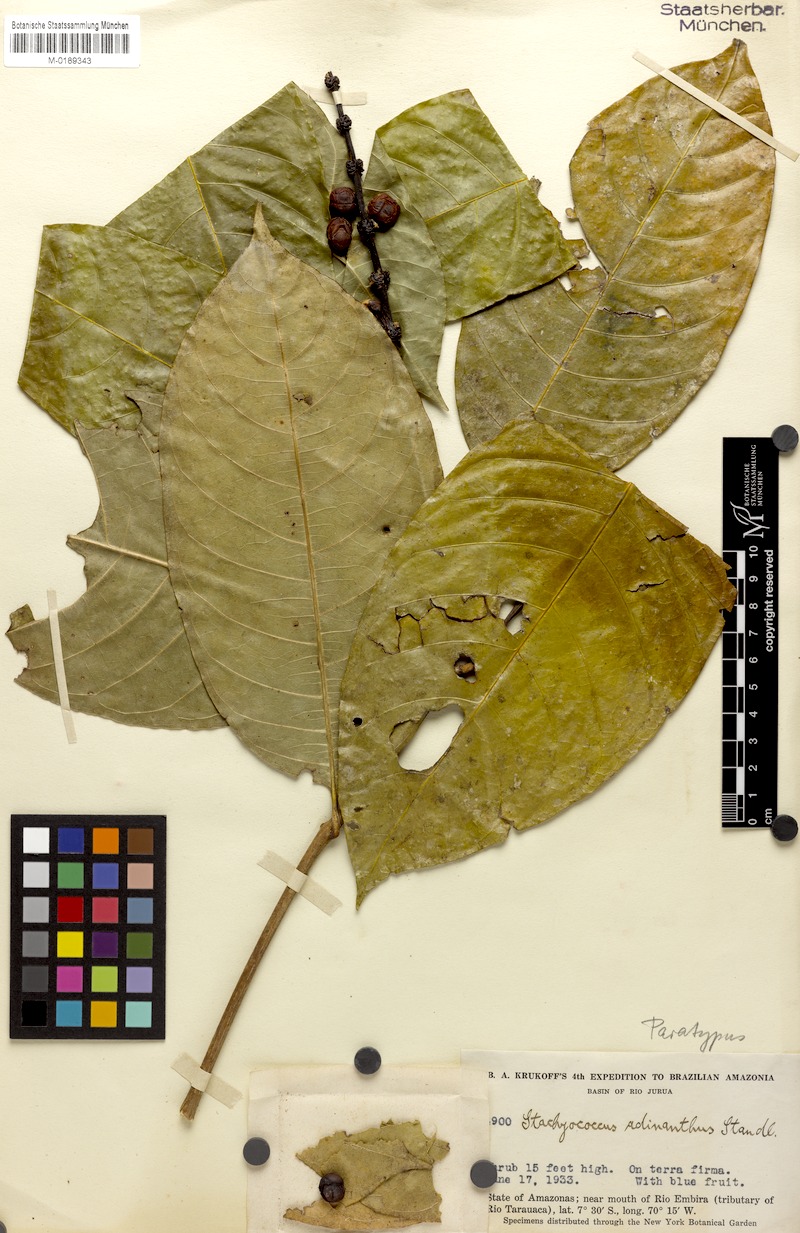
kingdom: Plantae
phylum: Tracheophyta
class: Magnoliopsida
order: Gentianales
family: Rubiaceae
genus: Carapichea
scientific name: Carapichea adinantha
